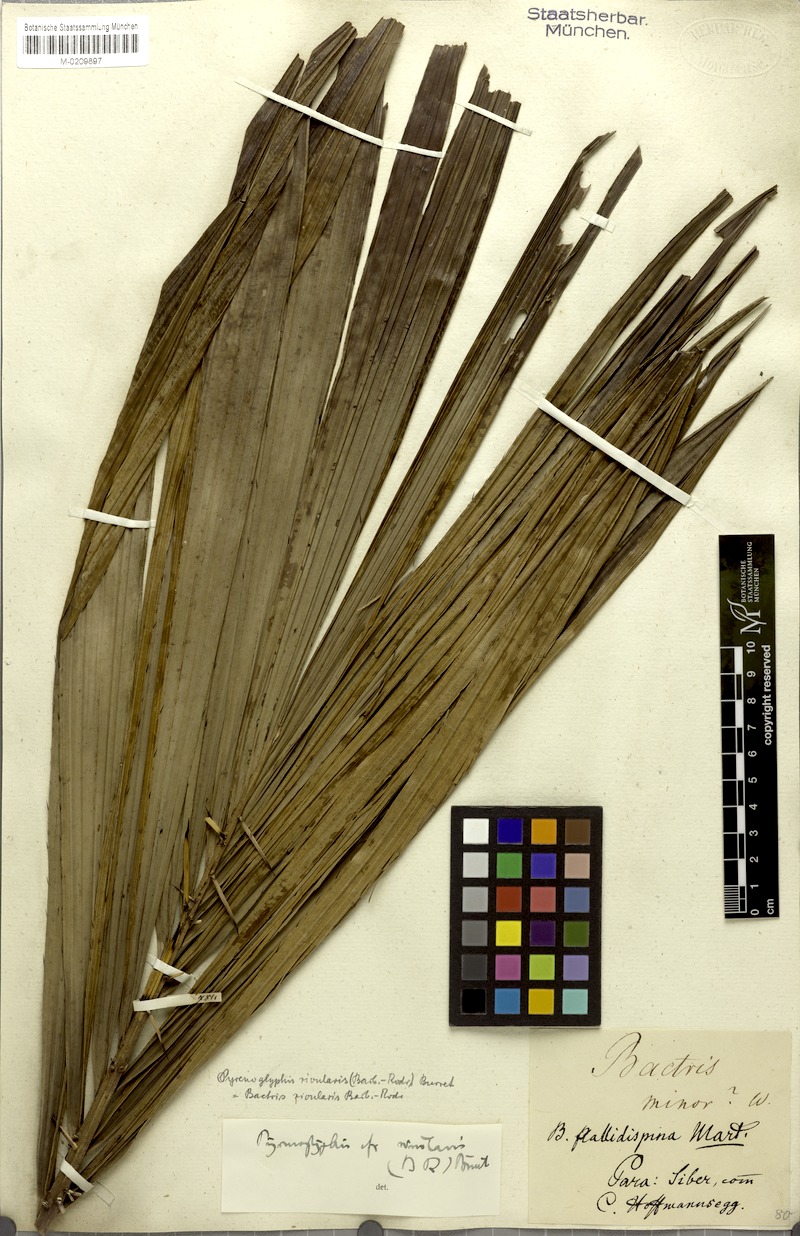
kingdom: Plantae
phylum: Tracheophyta
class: Liliopsida
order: Arecales
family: Arecaceae
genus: Bactris
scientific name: Bactris brongniartii
